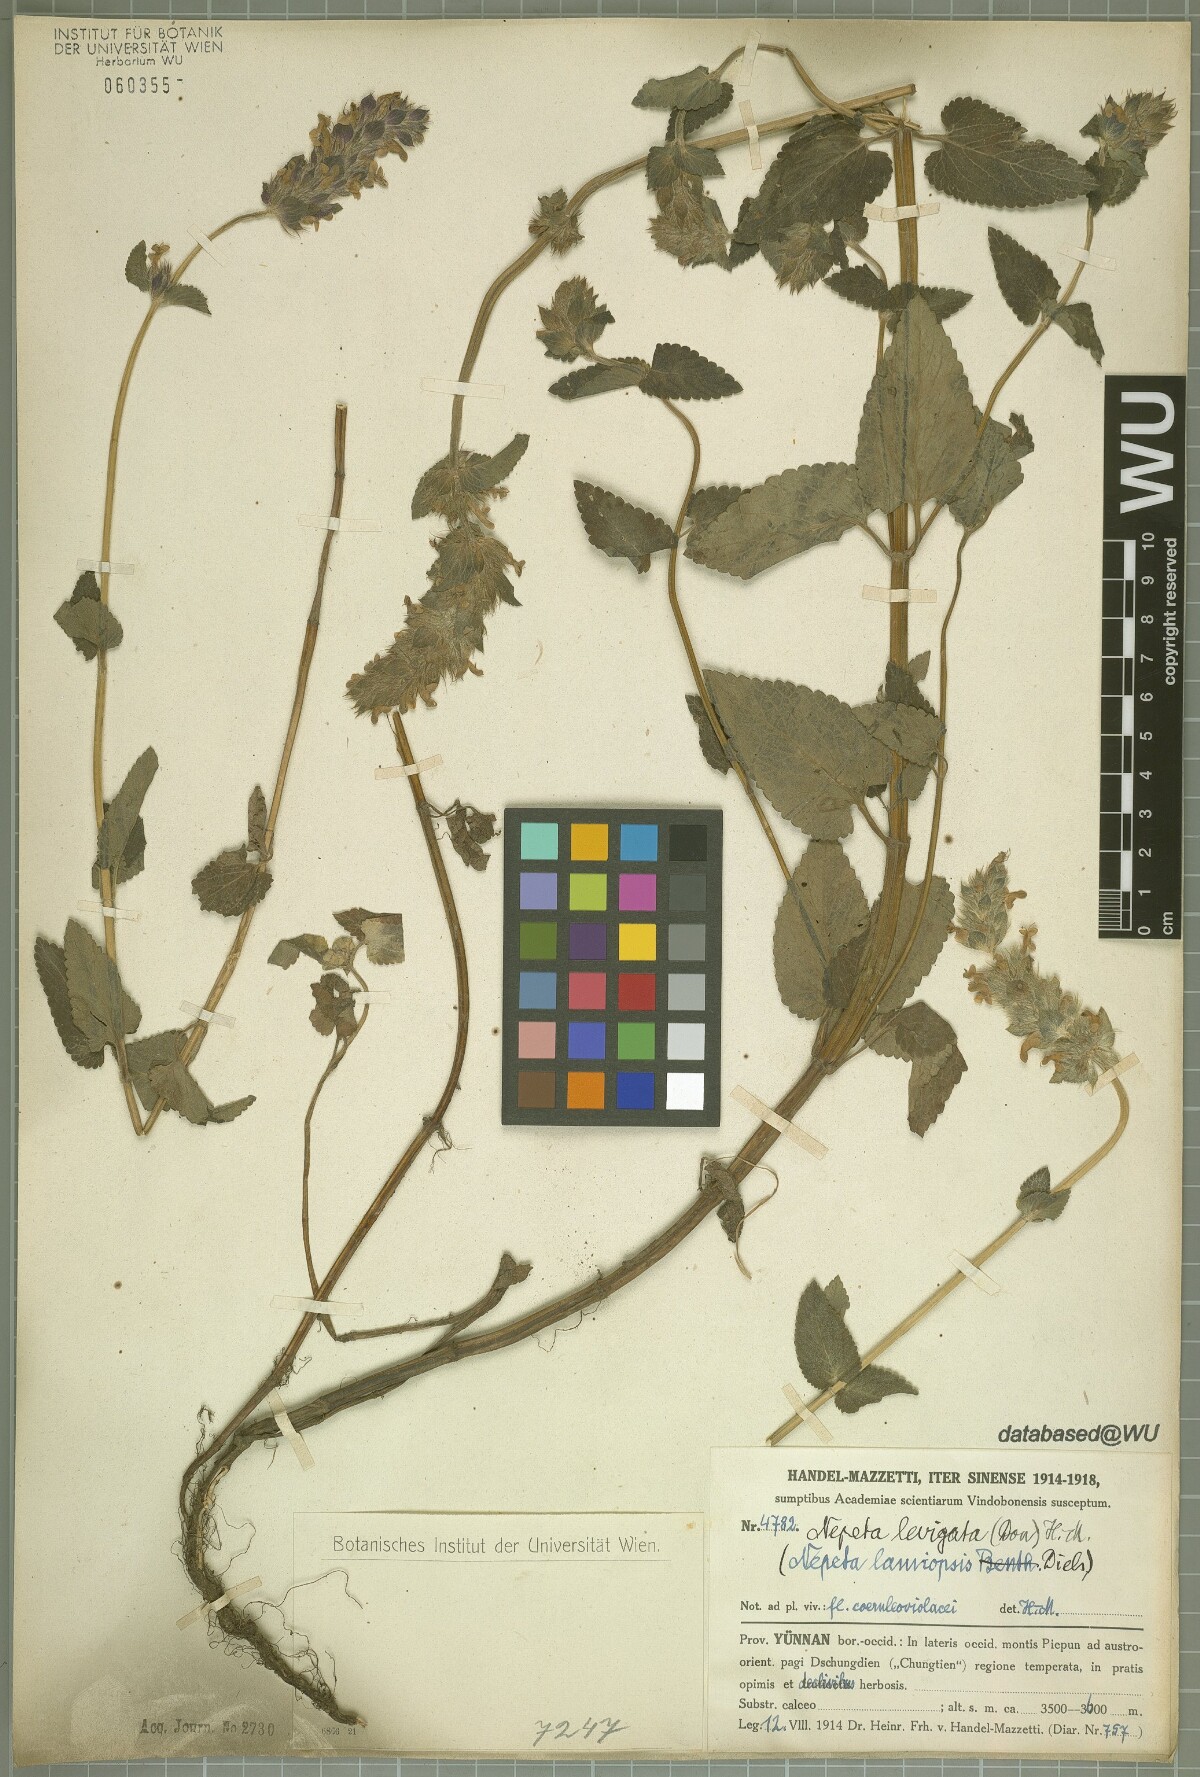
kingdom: Plantae
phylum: Tracheophyta
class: Magnoliopsida
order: Lamiales
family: Lamiaceae
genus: Nepeta
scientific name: Nepeta laevigata
